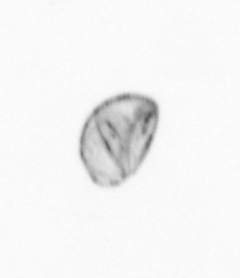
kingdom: Chromista
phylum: Ochrophyta
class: Bacillariophyceae
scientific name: Bacillariophyceae
